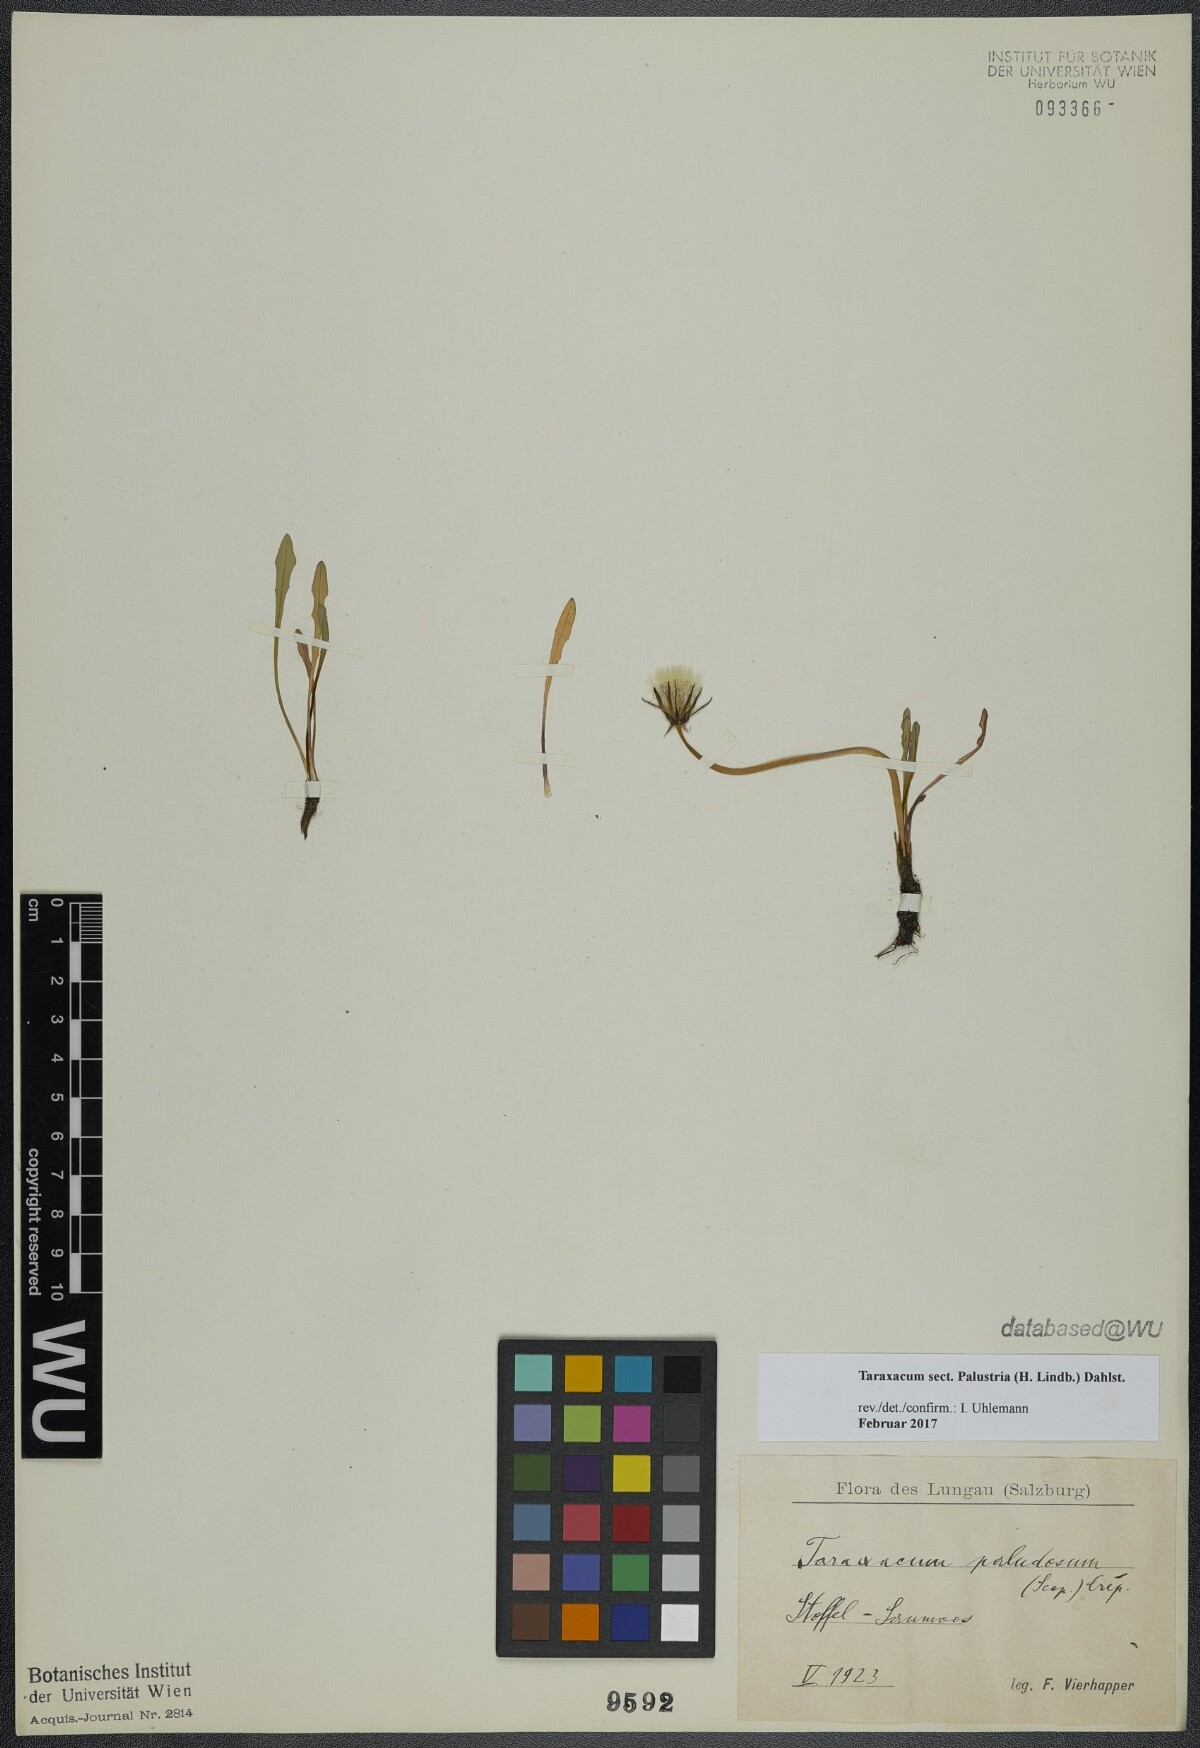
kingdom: Plantae
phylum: Tracheophyta
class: Magnoliopsida
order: Asterales
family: Asteraceae
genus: Taraxacum
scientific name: Taraxacum
